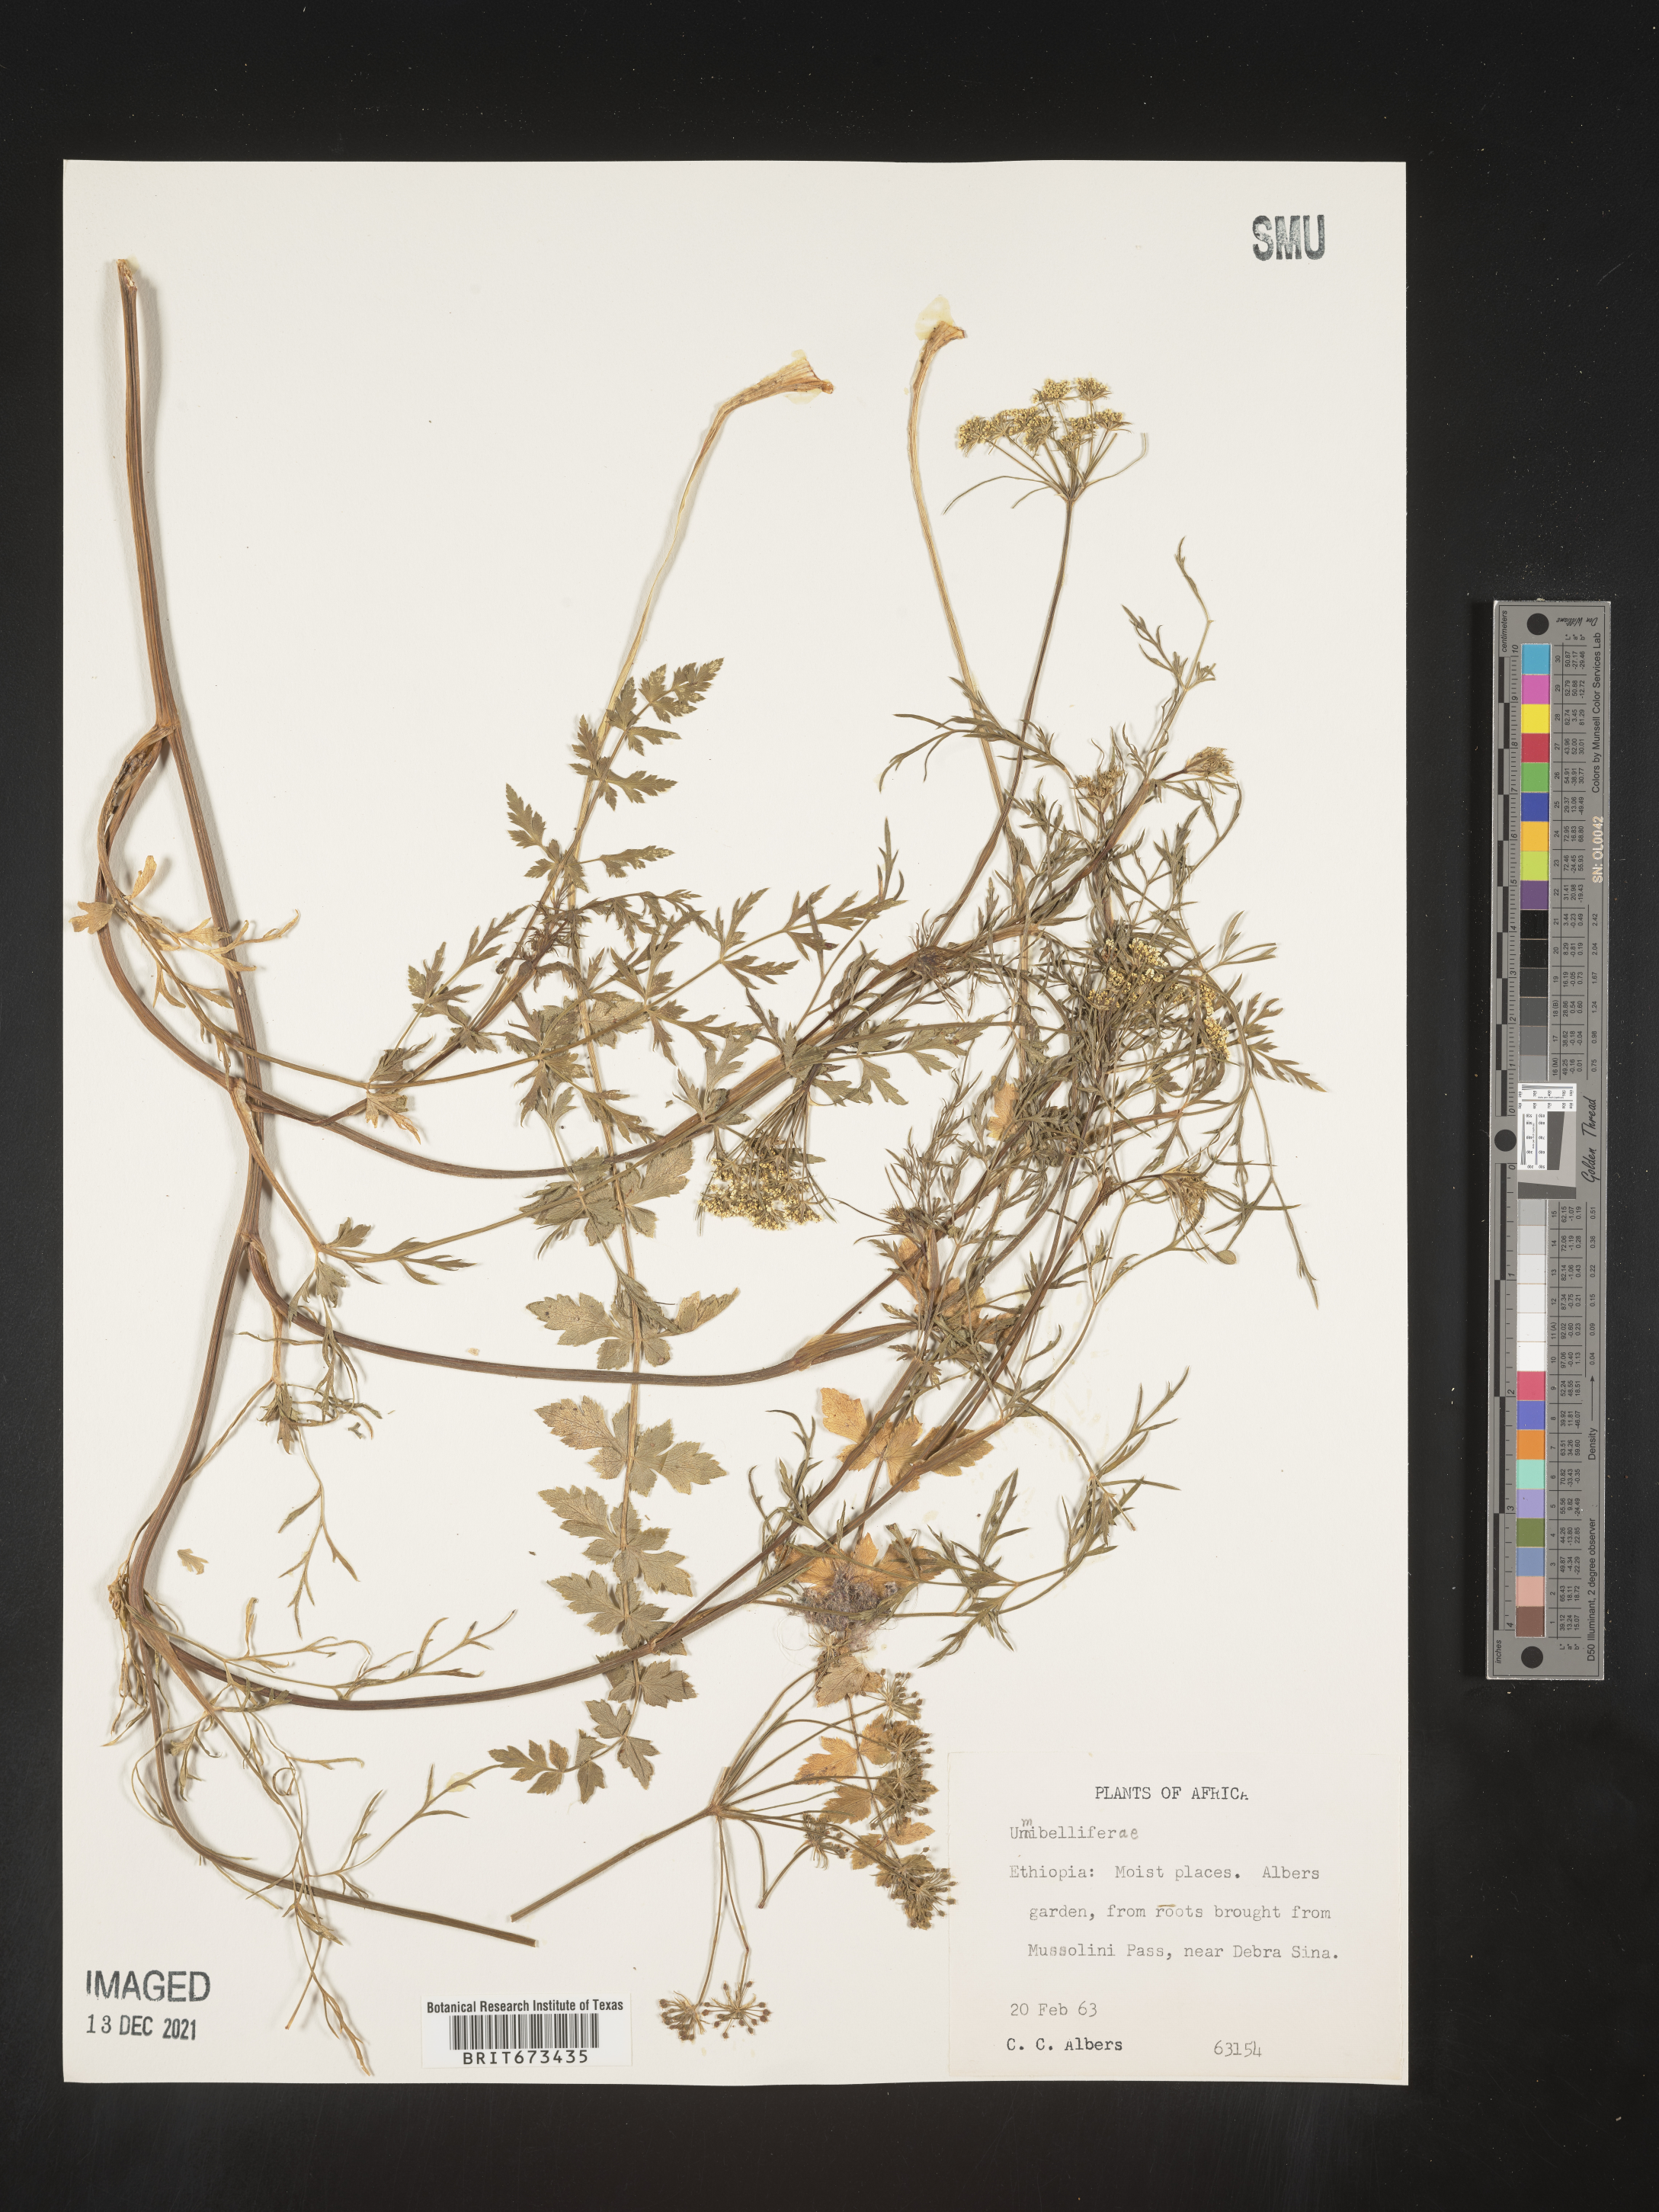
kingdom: Plantae
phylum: Tracheophyta
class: Magnoliopsida
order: Apiales
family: Apiaceae
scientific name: Apiaceae
